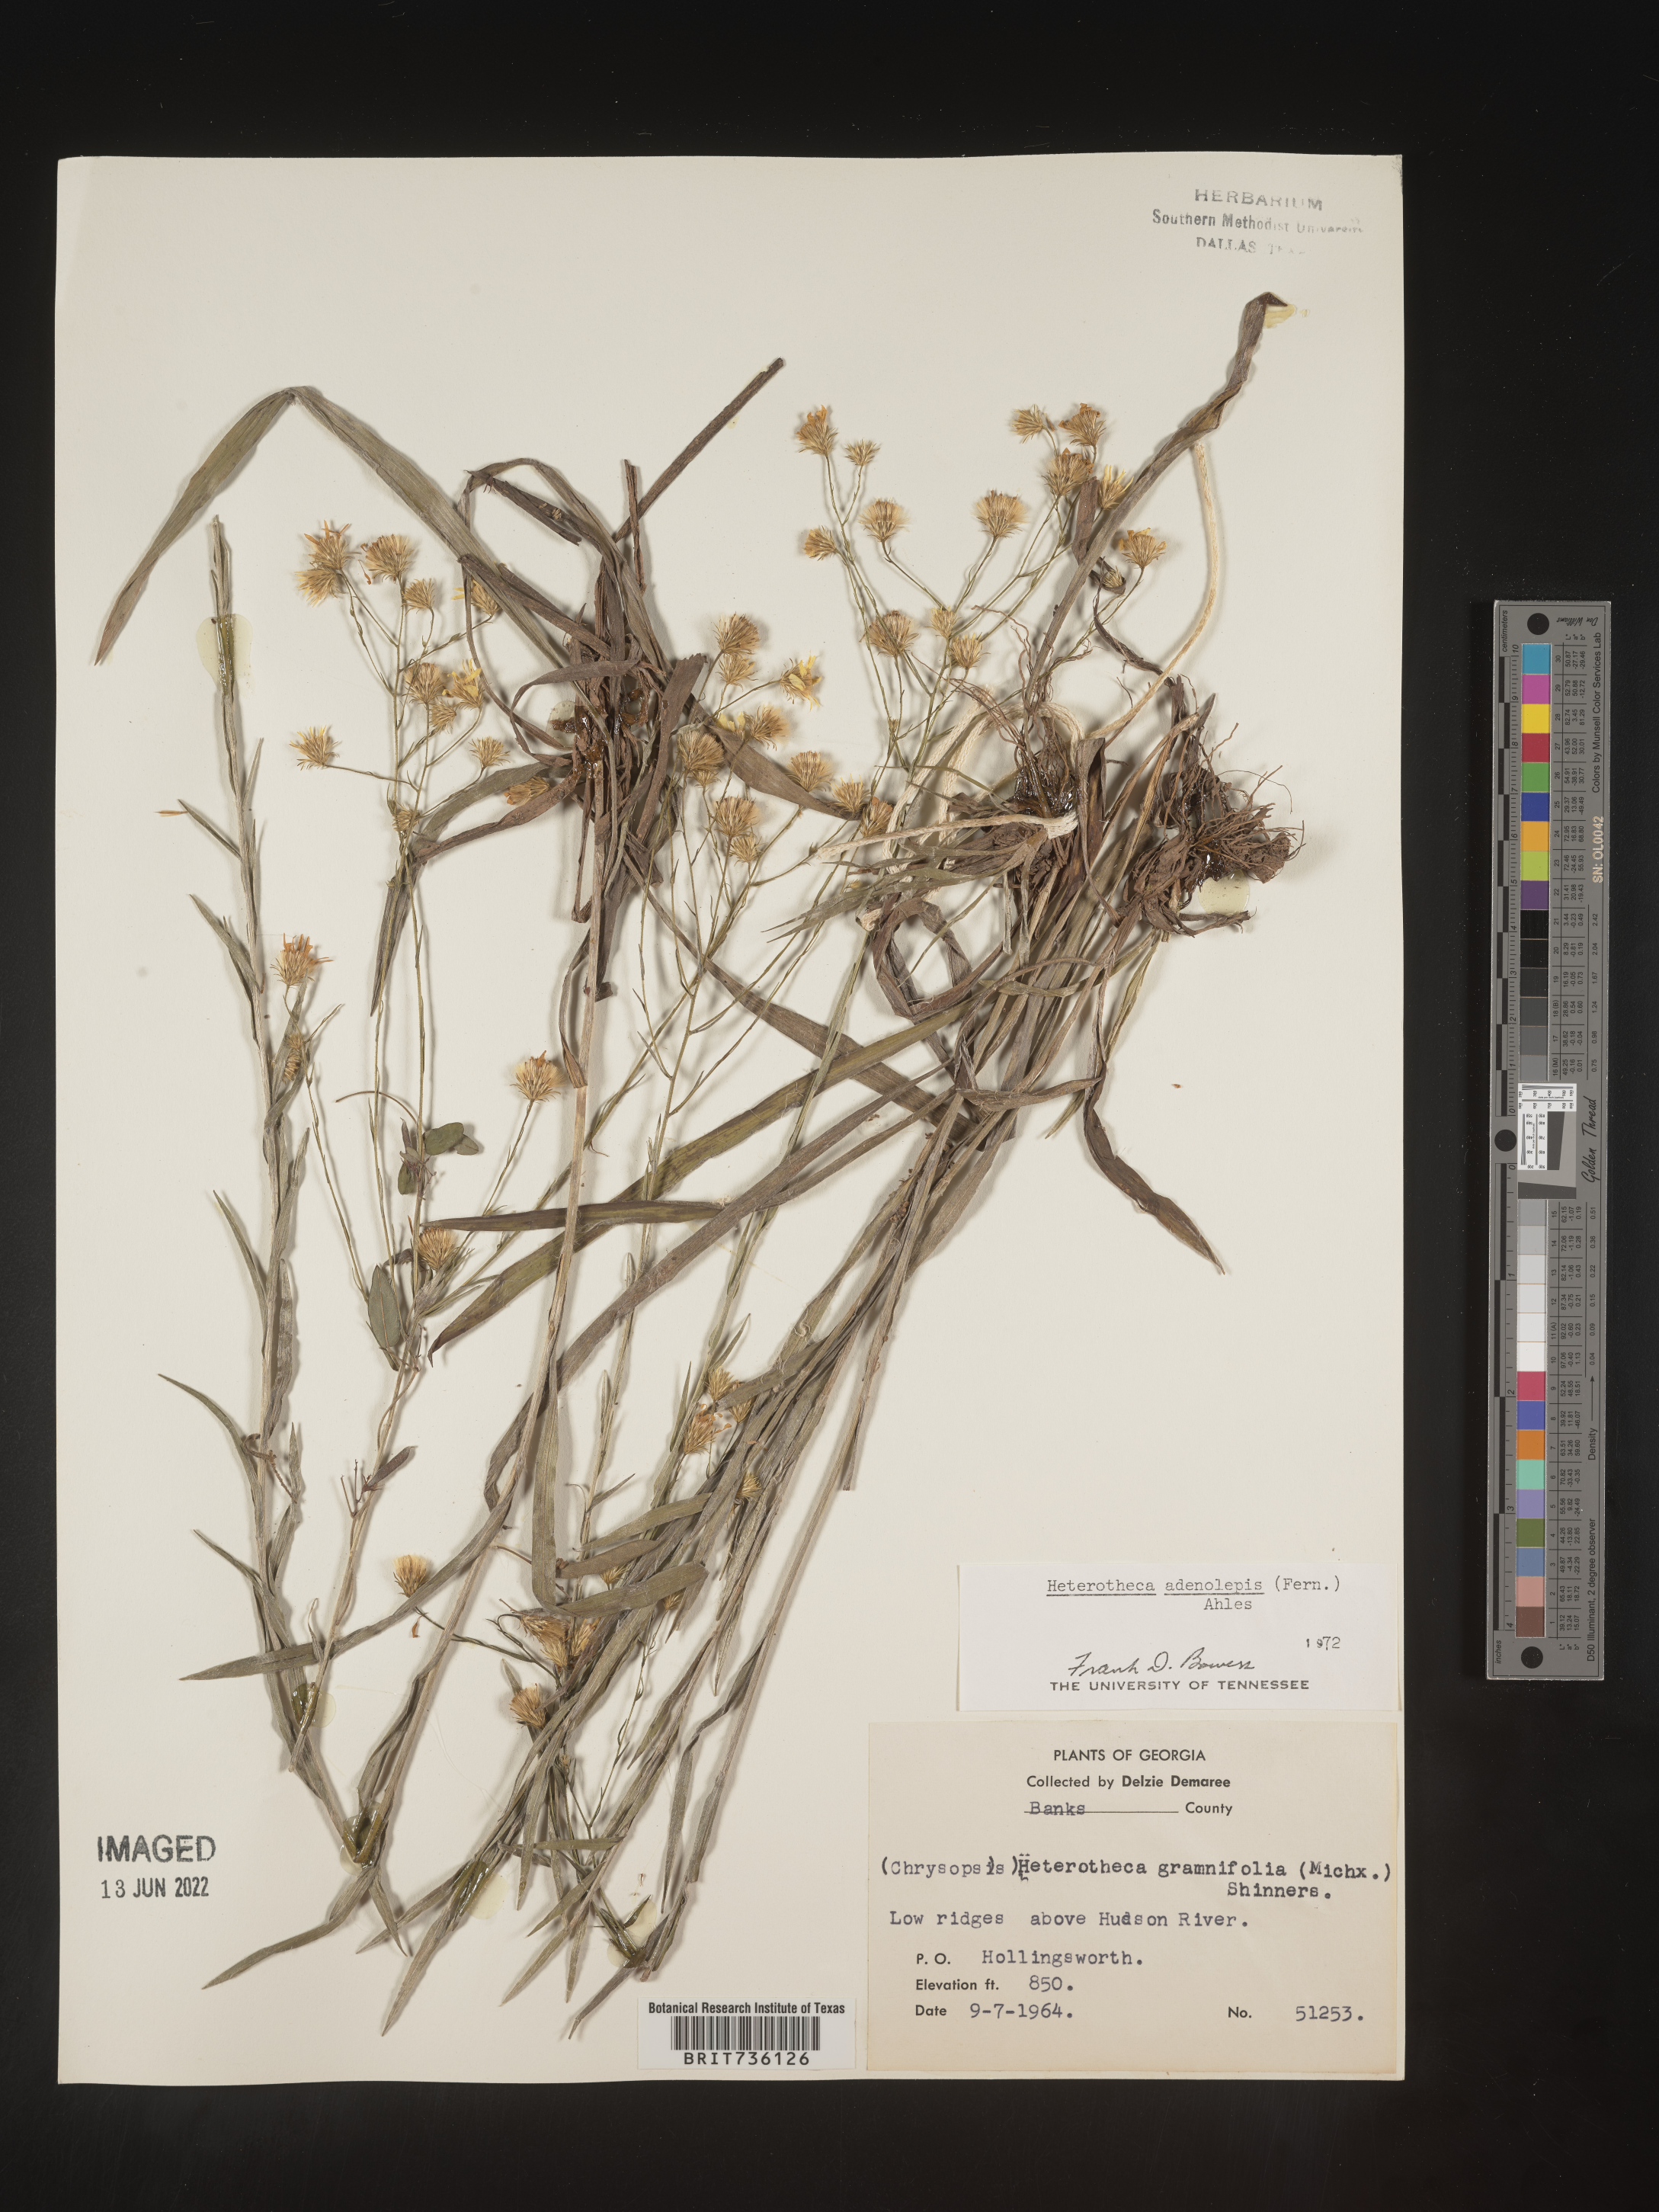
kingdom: Plantae
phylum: Tracheophyta
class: Magnoliopsida
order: Asterales
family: Asteraceae
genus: Pityopsis
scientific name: Pityopsis aspera
